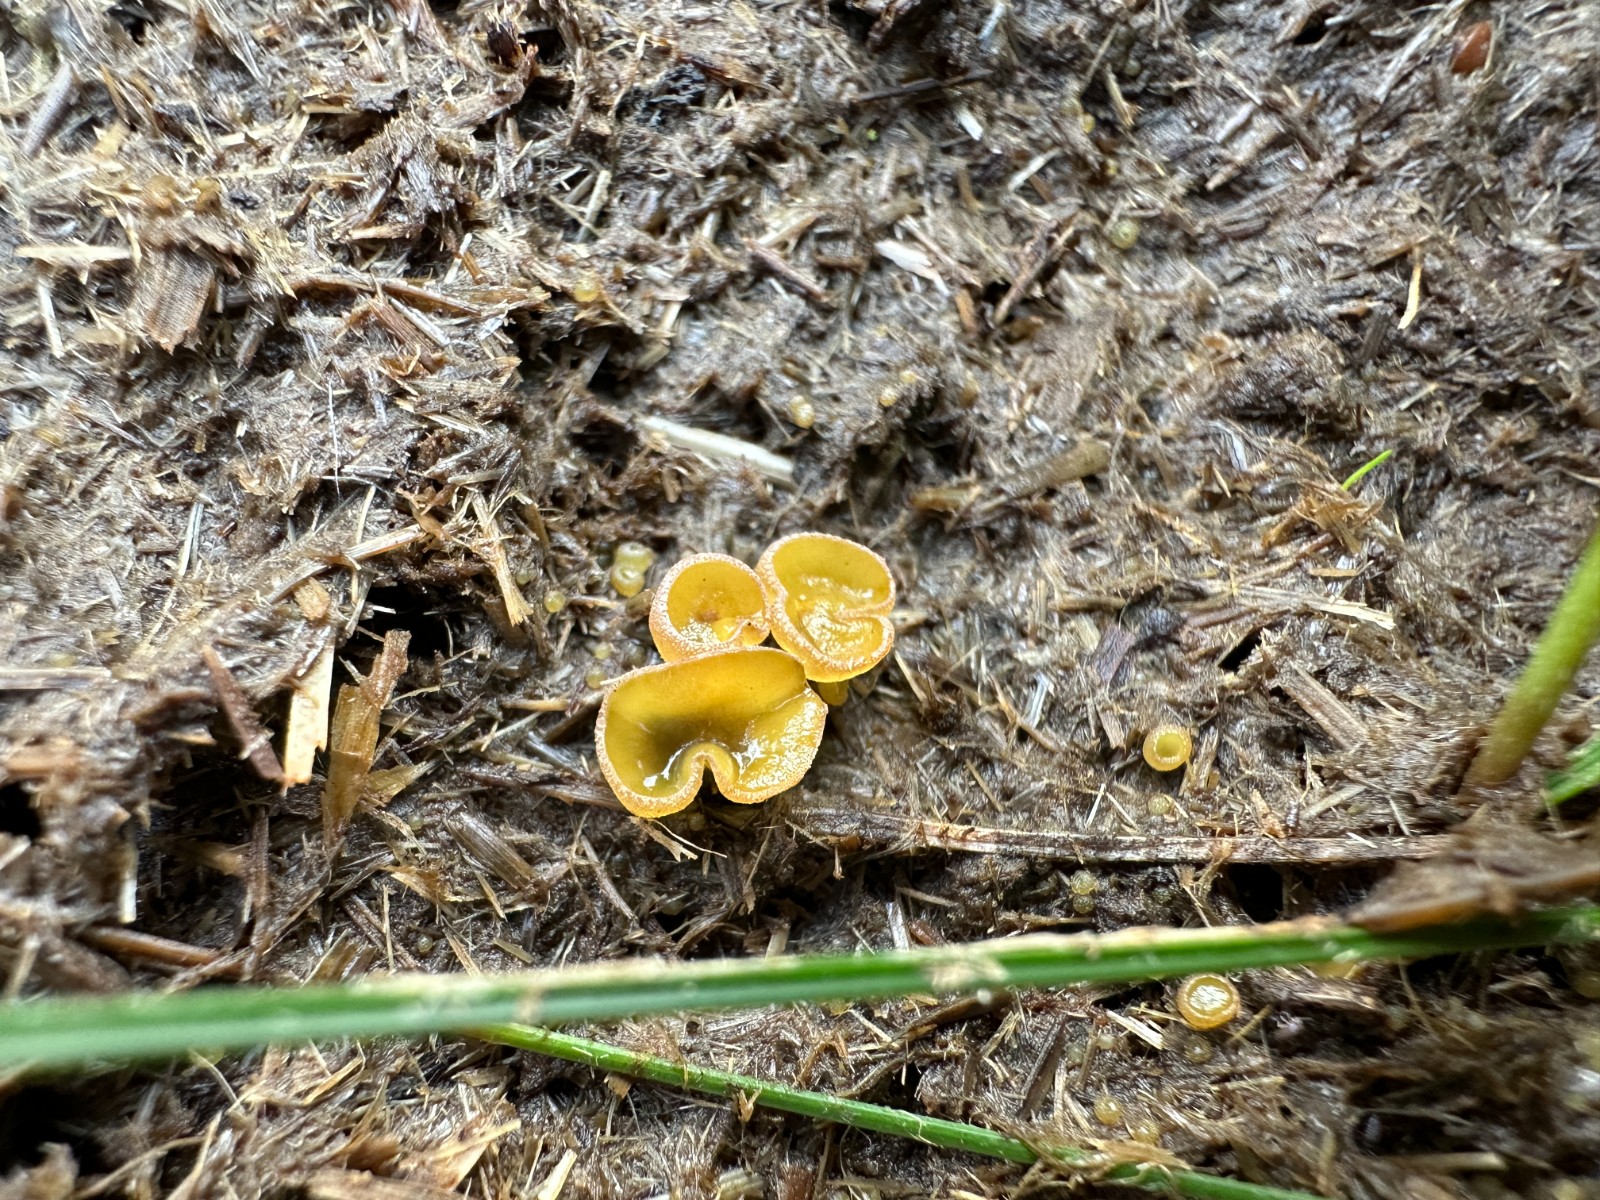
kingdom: Fungi
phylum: Ascomycota
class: Pezizomycetes
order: Pezizales
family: Pyronemataceae
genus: Cheilymenia
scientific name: Cheilymenia
